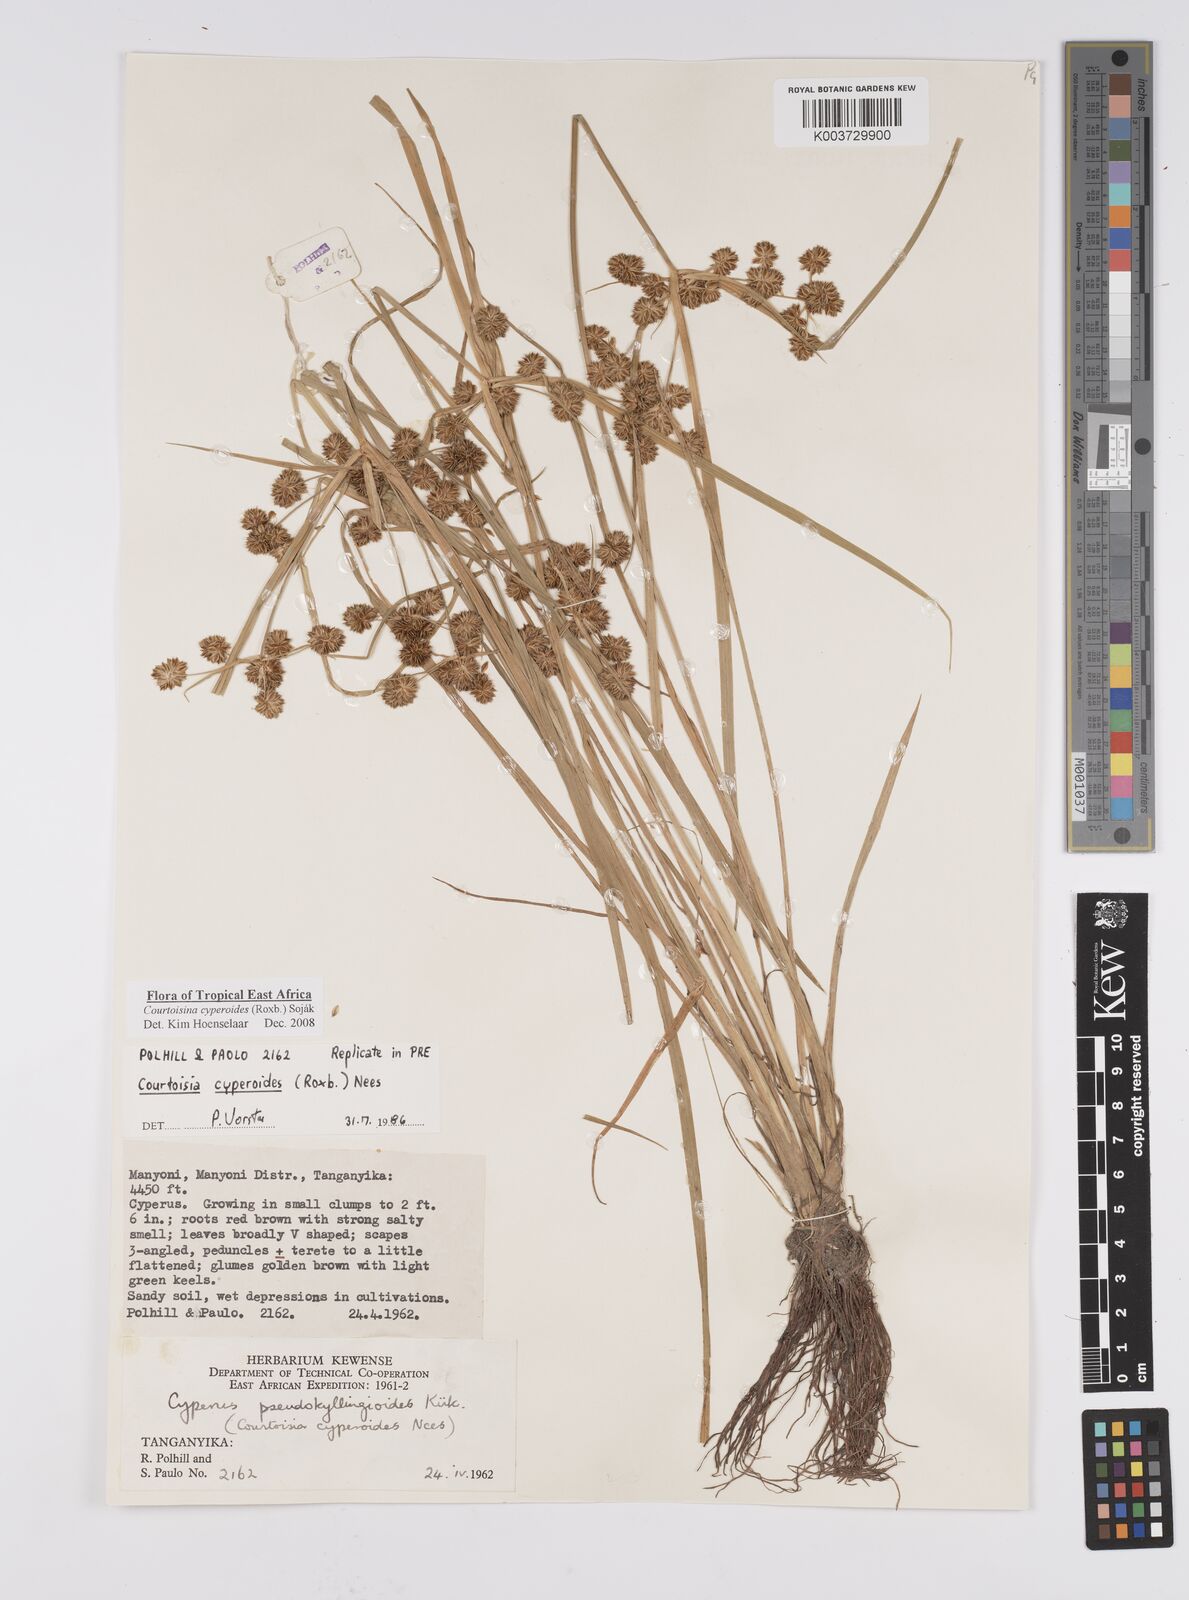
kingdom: Plantae
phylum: Tracheophyta
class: Liliopsida
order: Poales
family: Cyperaceae
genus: Cyperus
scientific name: Cyperus cyperoides
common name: Pacific island flat sedge
